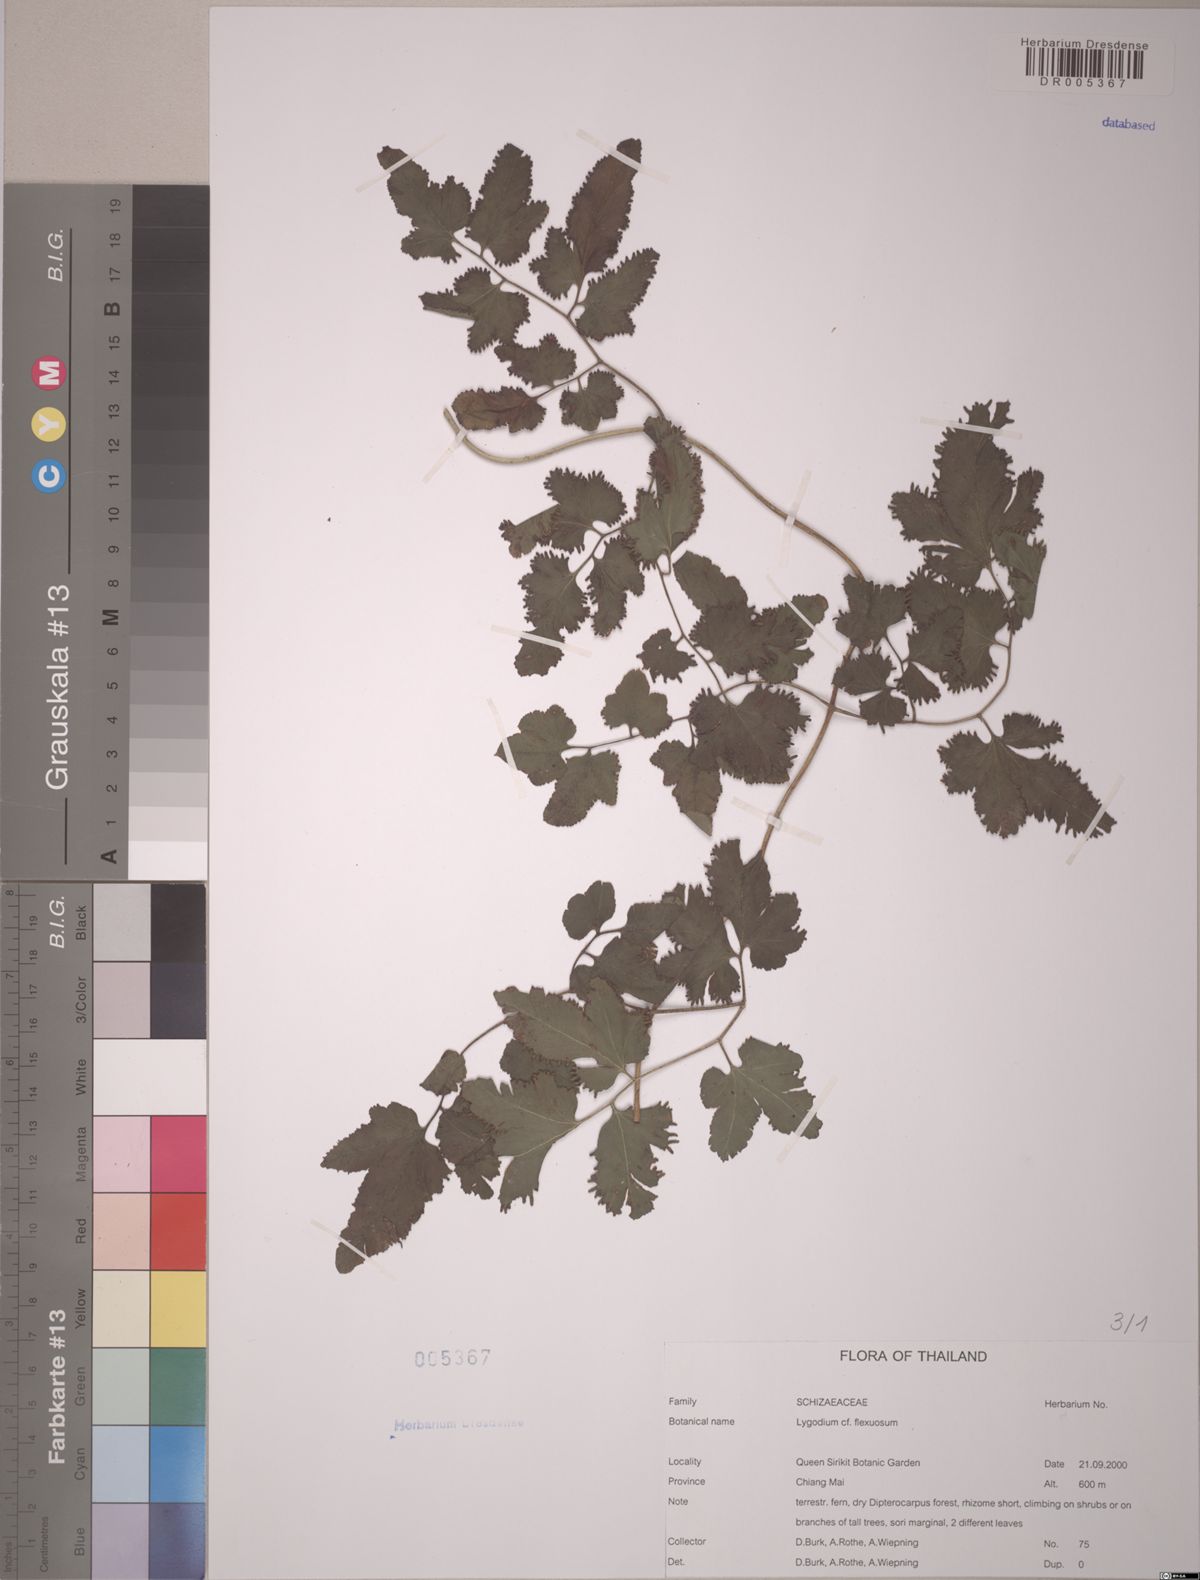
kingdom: Plantae
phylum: Tracheophyta
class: Polypodiopsida
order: Schizaeales
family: Lygodiaceae
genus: Lygodium
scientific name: Lygodium flexuosum
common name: Maidenhair creeper
